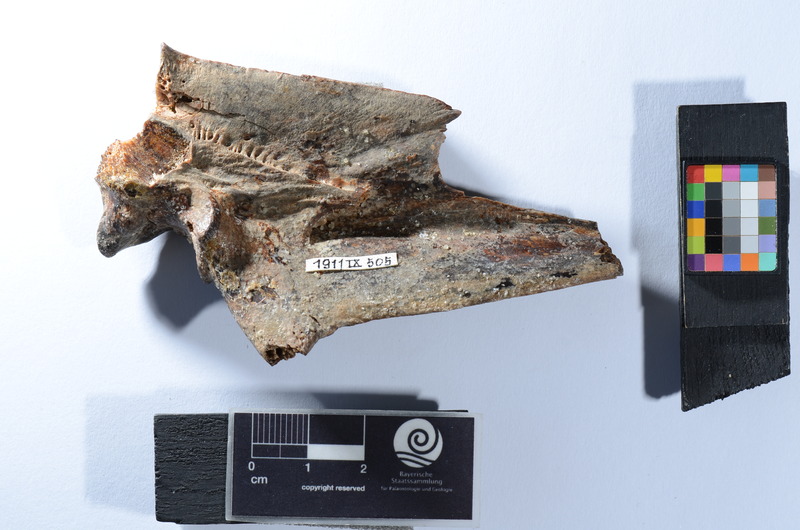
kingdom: Animalia
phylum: Chordata
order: Perciformes
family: Latidae
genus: Lates
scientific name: Lates niloticus
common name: Nile perch
